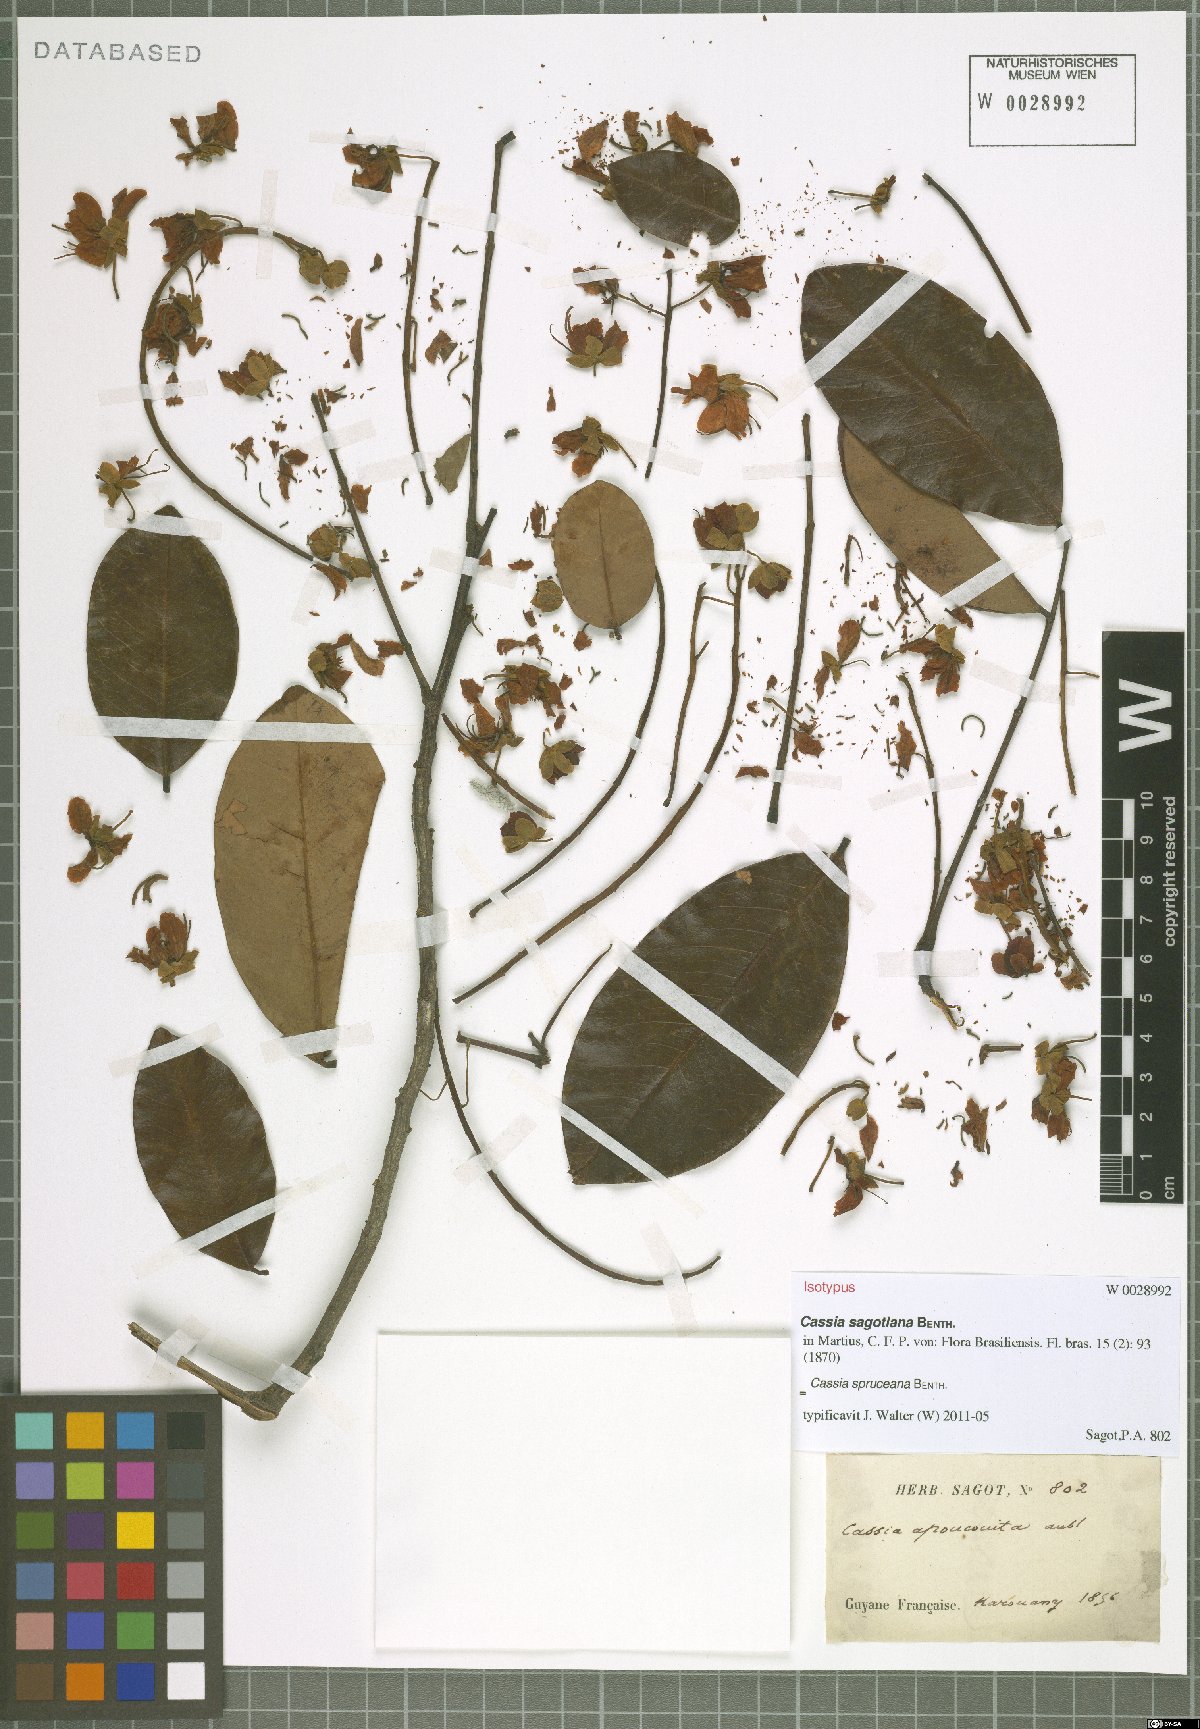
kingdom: Plantae
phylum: Tracheophyta
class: Magnoliopsida
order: Fabales
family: Fabaceae
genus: Cassia
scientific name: Cassia spruceana
